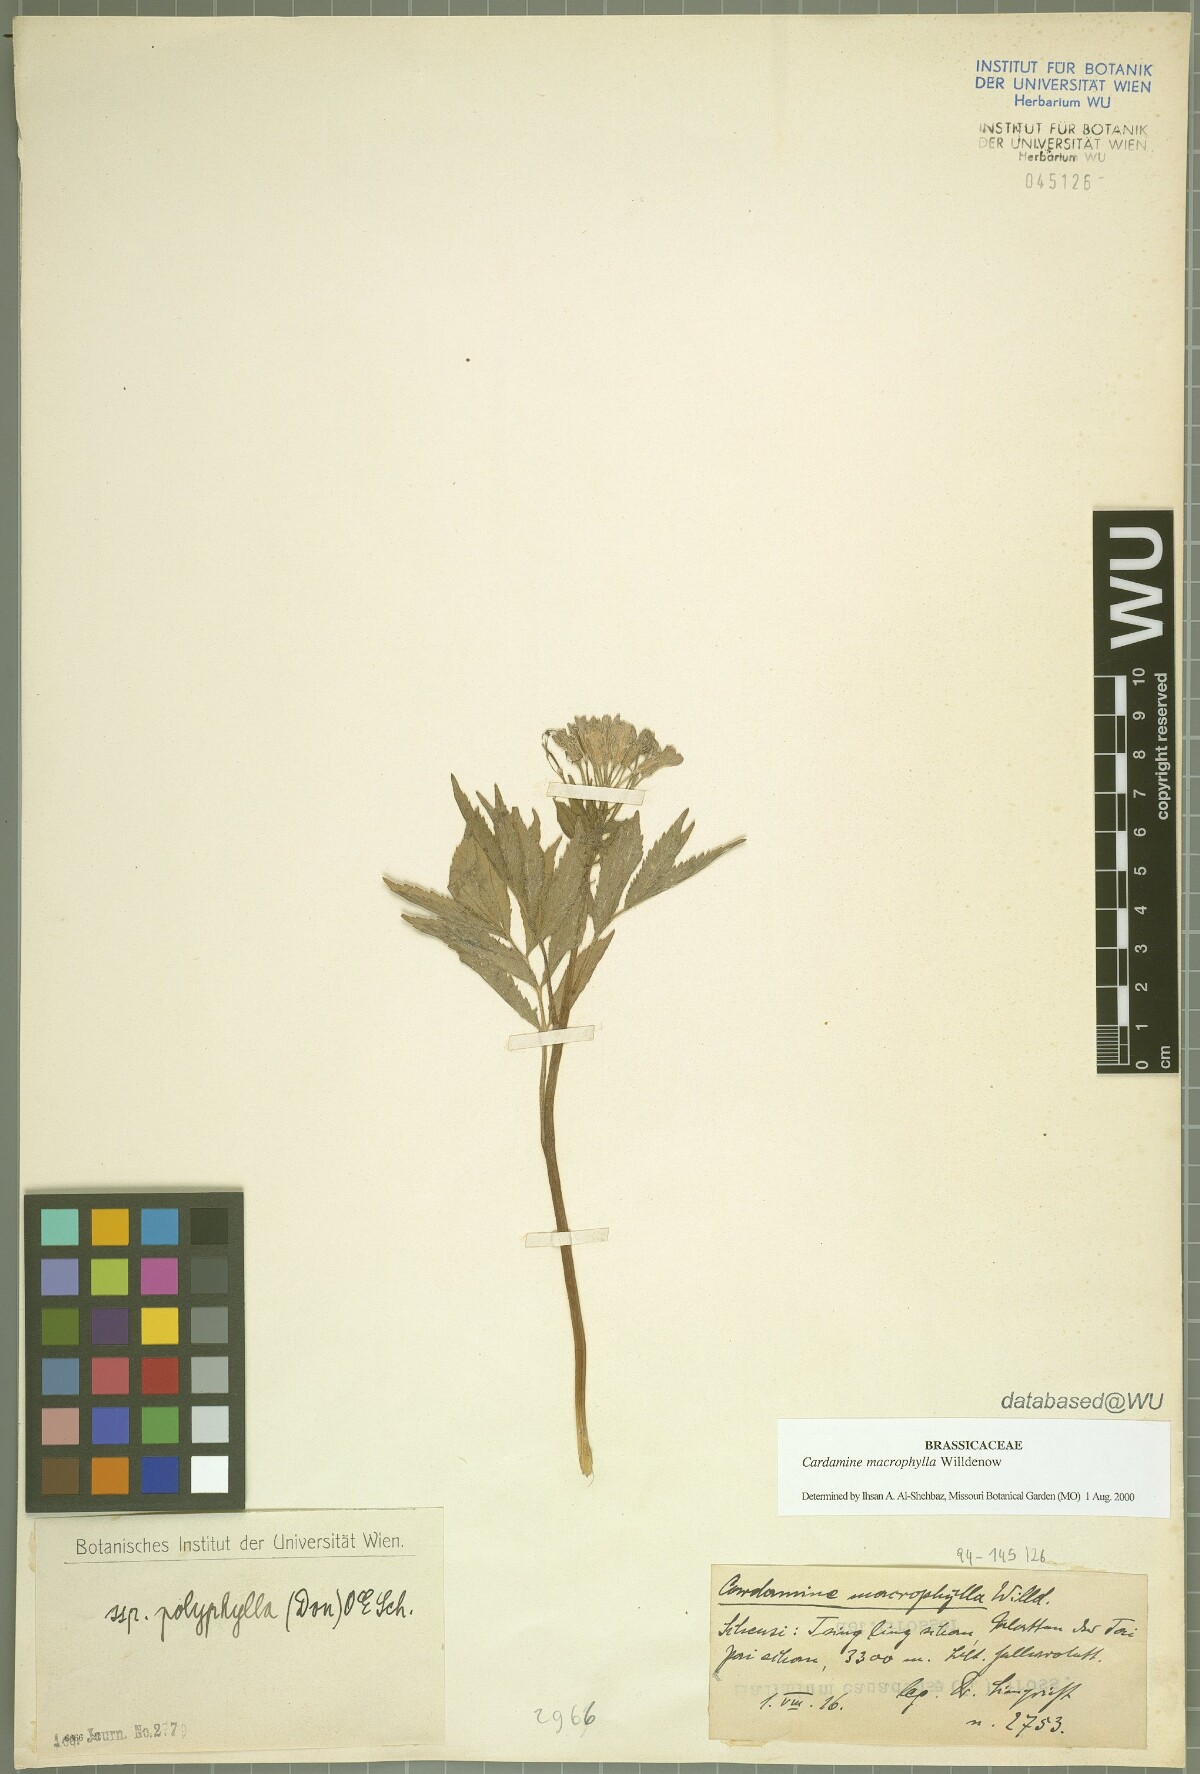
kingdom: Plantae
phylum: Tracheophyta
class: Magnoliopsida
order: Brassicales
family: Brassicaceae
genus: Cardamine
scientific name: Cardamine macrophylla
